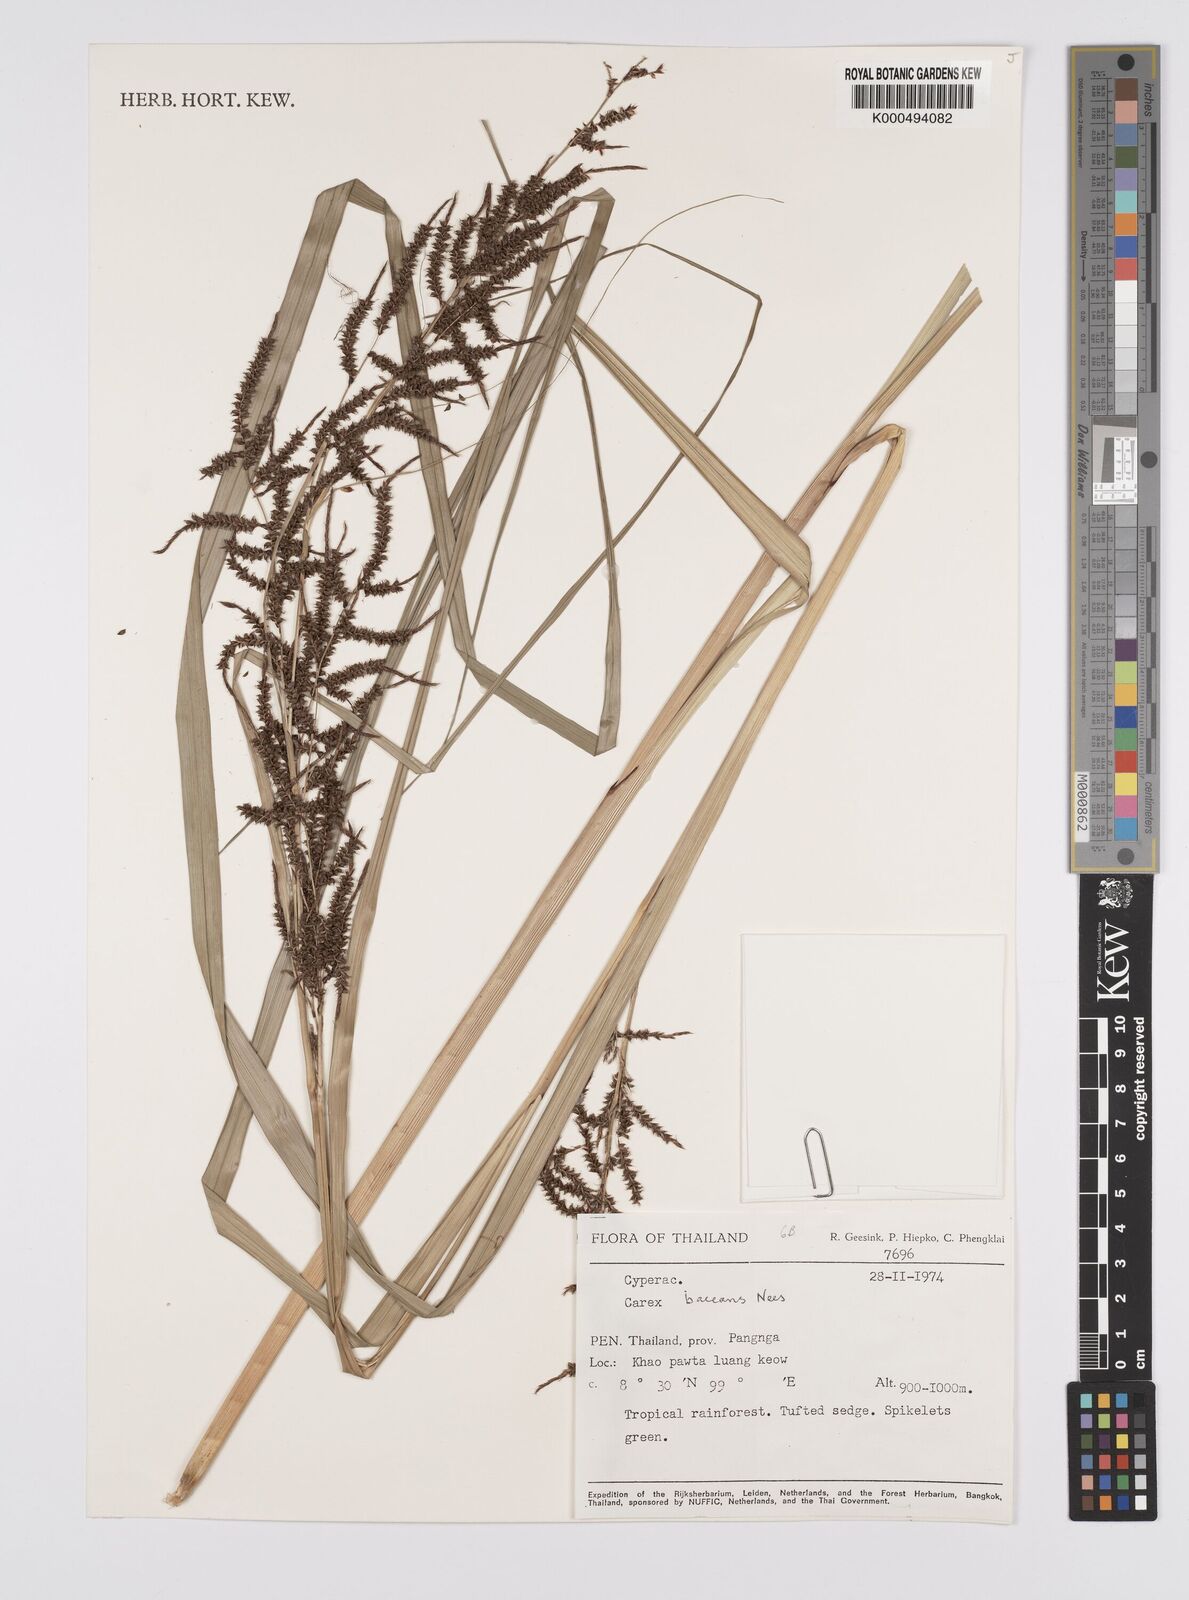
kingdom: Plantae
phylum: Tracheophyta
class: Liliopsida
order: Poales
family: Cyperaceae
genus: Carex
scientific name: Carex baccans
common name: Crimson seeded sedge
